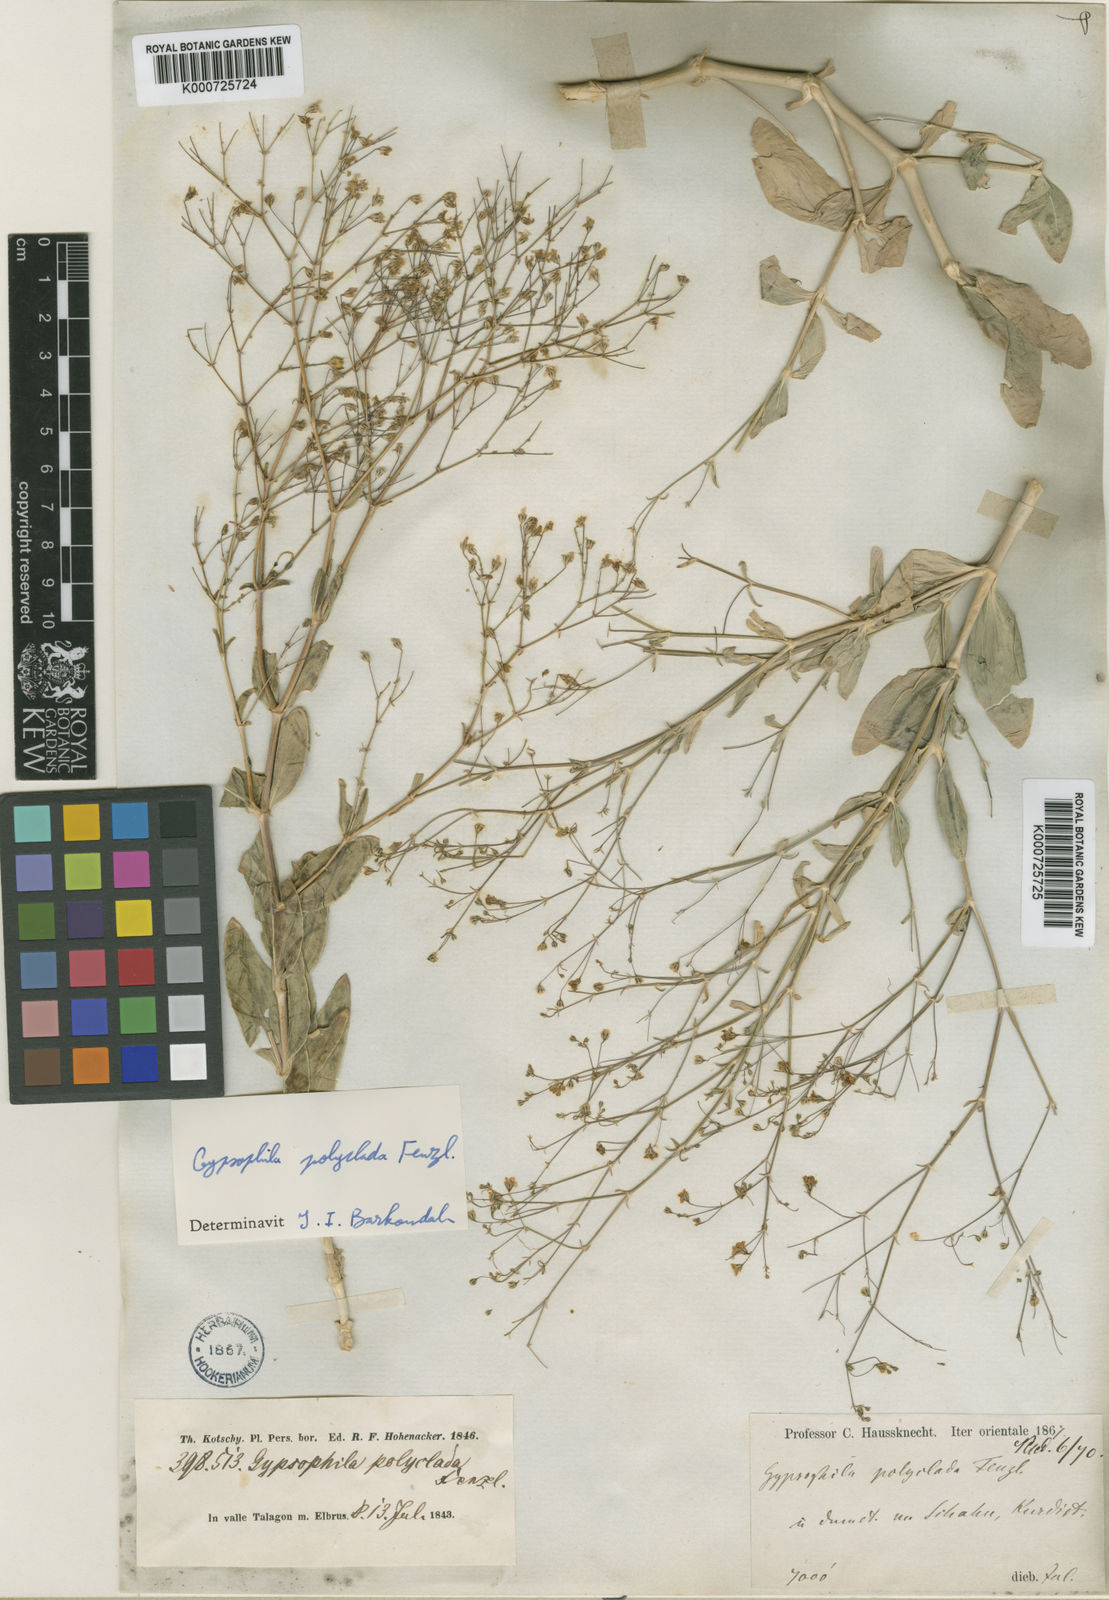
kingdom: Plantae
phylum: Tracheophyta
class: Magnoliopsida
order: Caryophyllales
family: Caryophyllaceae
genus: Gypsophila
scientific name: Gypsophila polyclada
